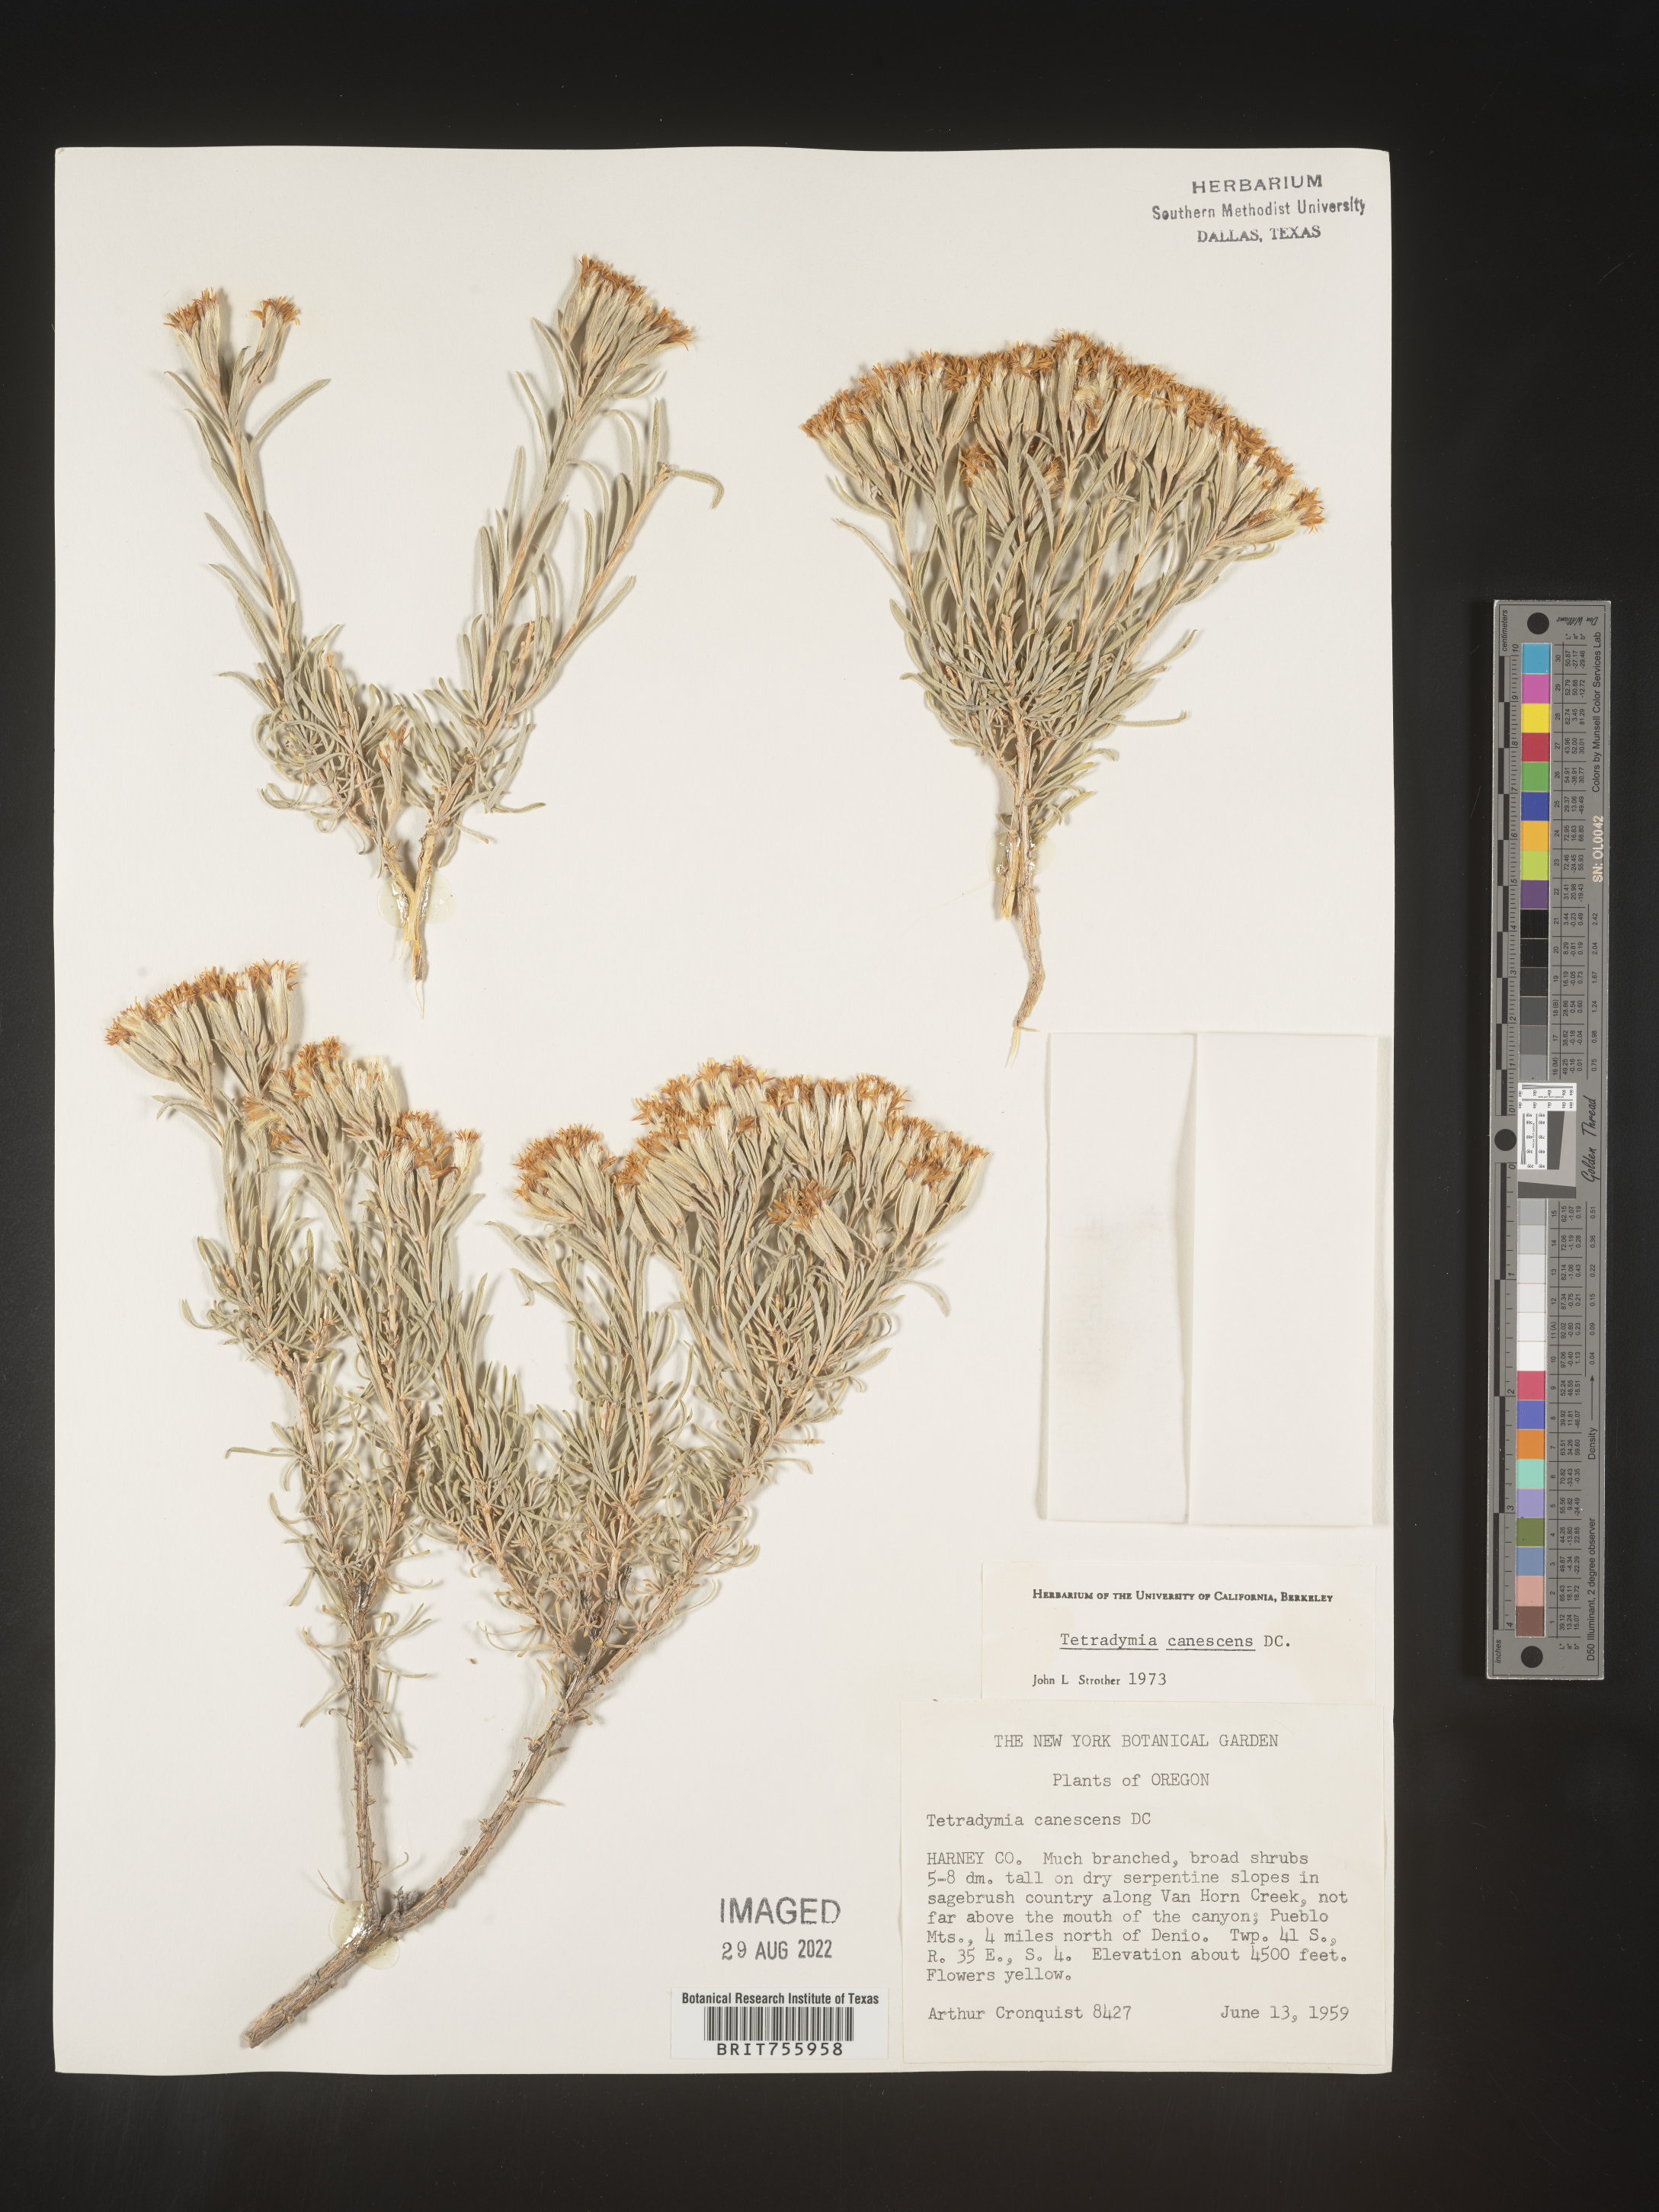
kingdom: Plantae
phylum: Tracheophyta
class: Magnoliopsida
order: Asterales
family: Asteraceae
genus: Tetradymia
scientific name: Tetradymia canescens
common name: Spineless horsebrush
